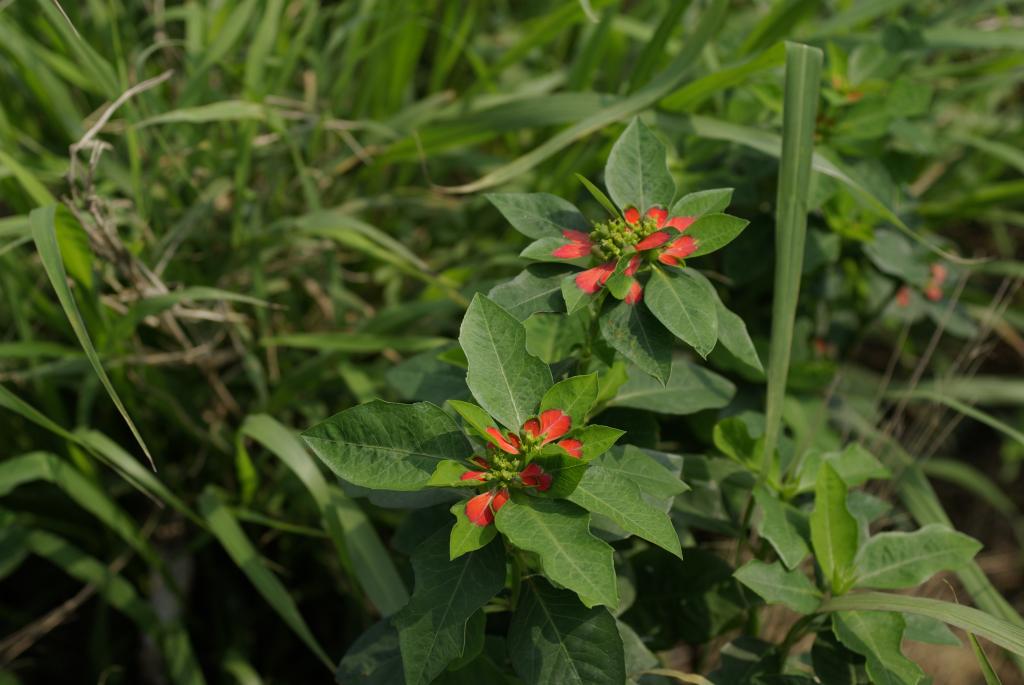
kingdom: Plantae
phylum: Tracheophyta
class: Magnoliopsida
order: Malpighiales
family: Euphorbiaceae
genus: Euphorbia
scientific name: Euphorbia heterophylla
